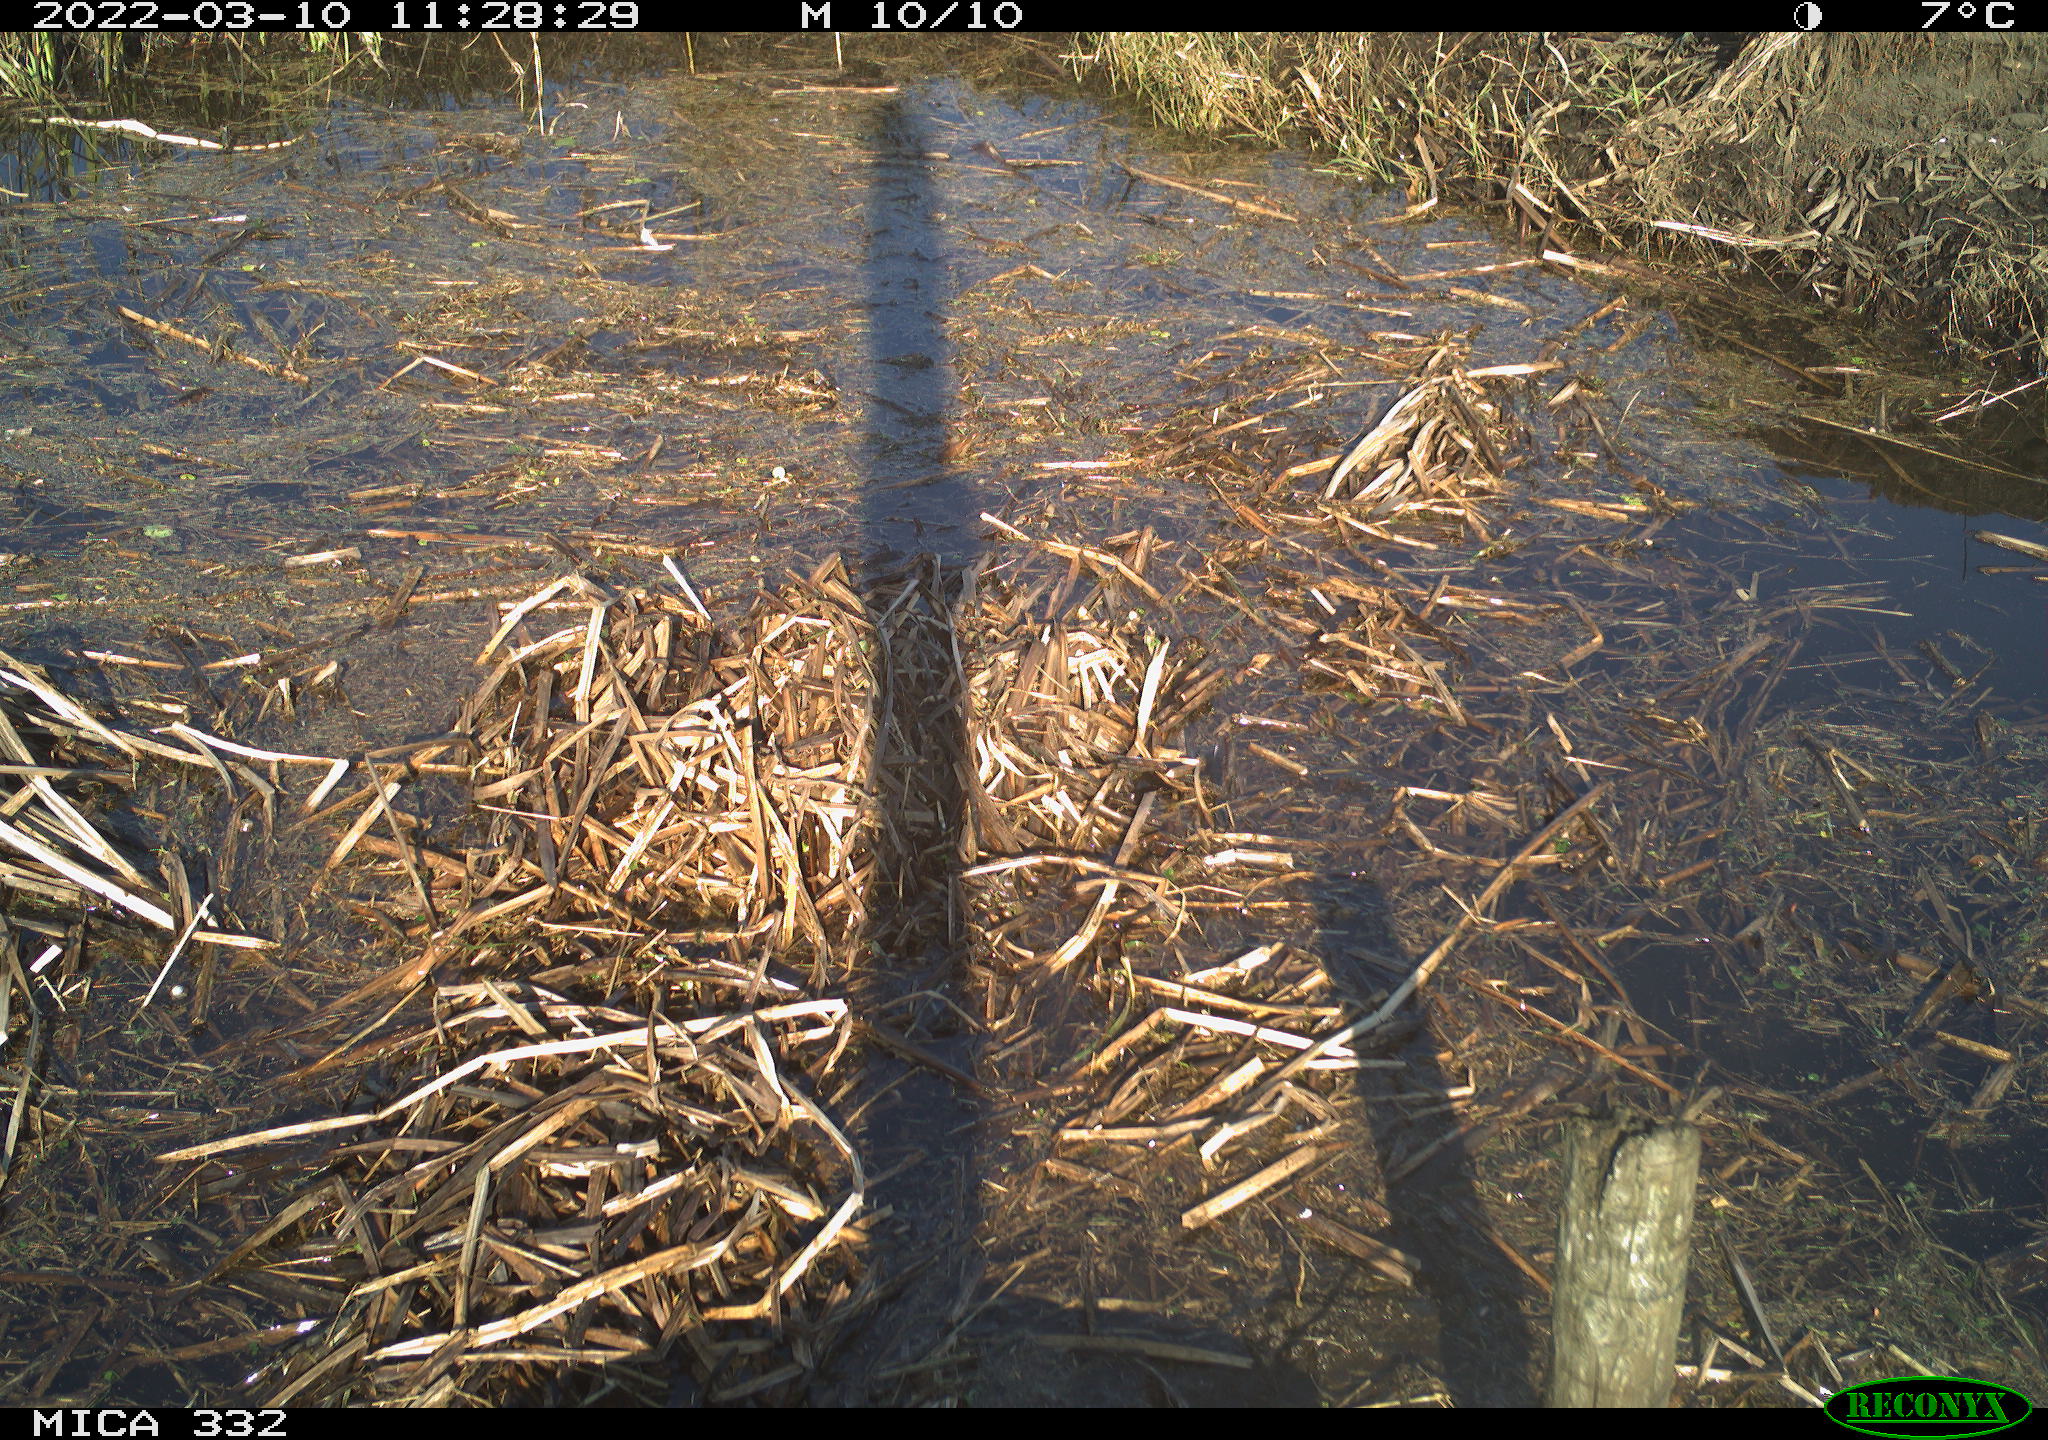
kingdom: Animalia
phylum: Chordata
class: Aves
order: Pelecaniformes
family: Ardeidae
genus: Ardea
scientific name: Ardea alba
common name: Great egret
